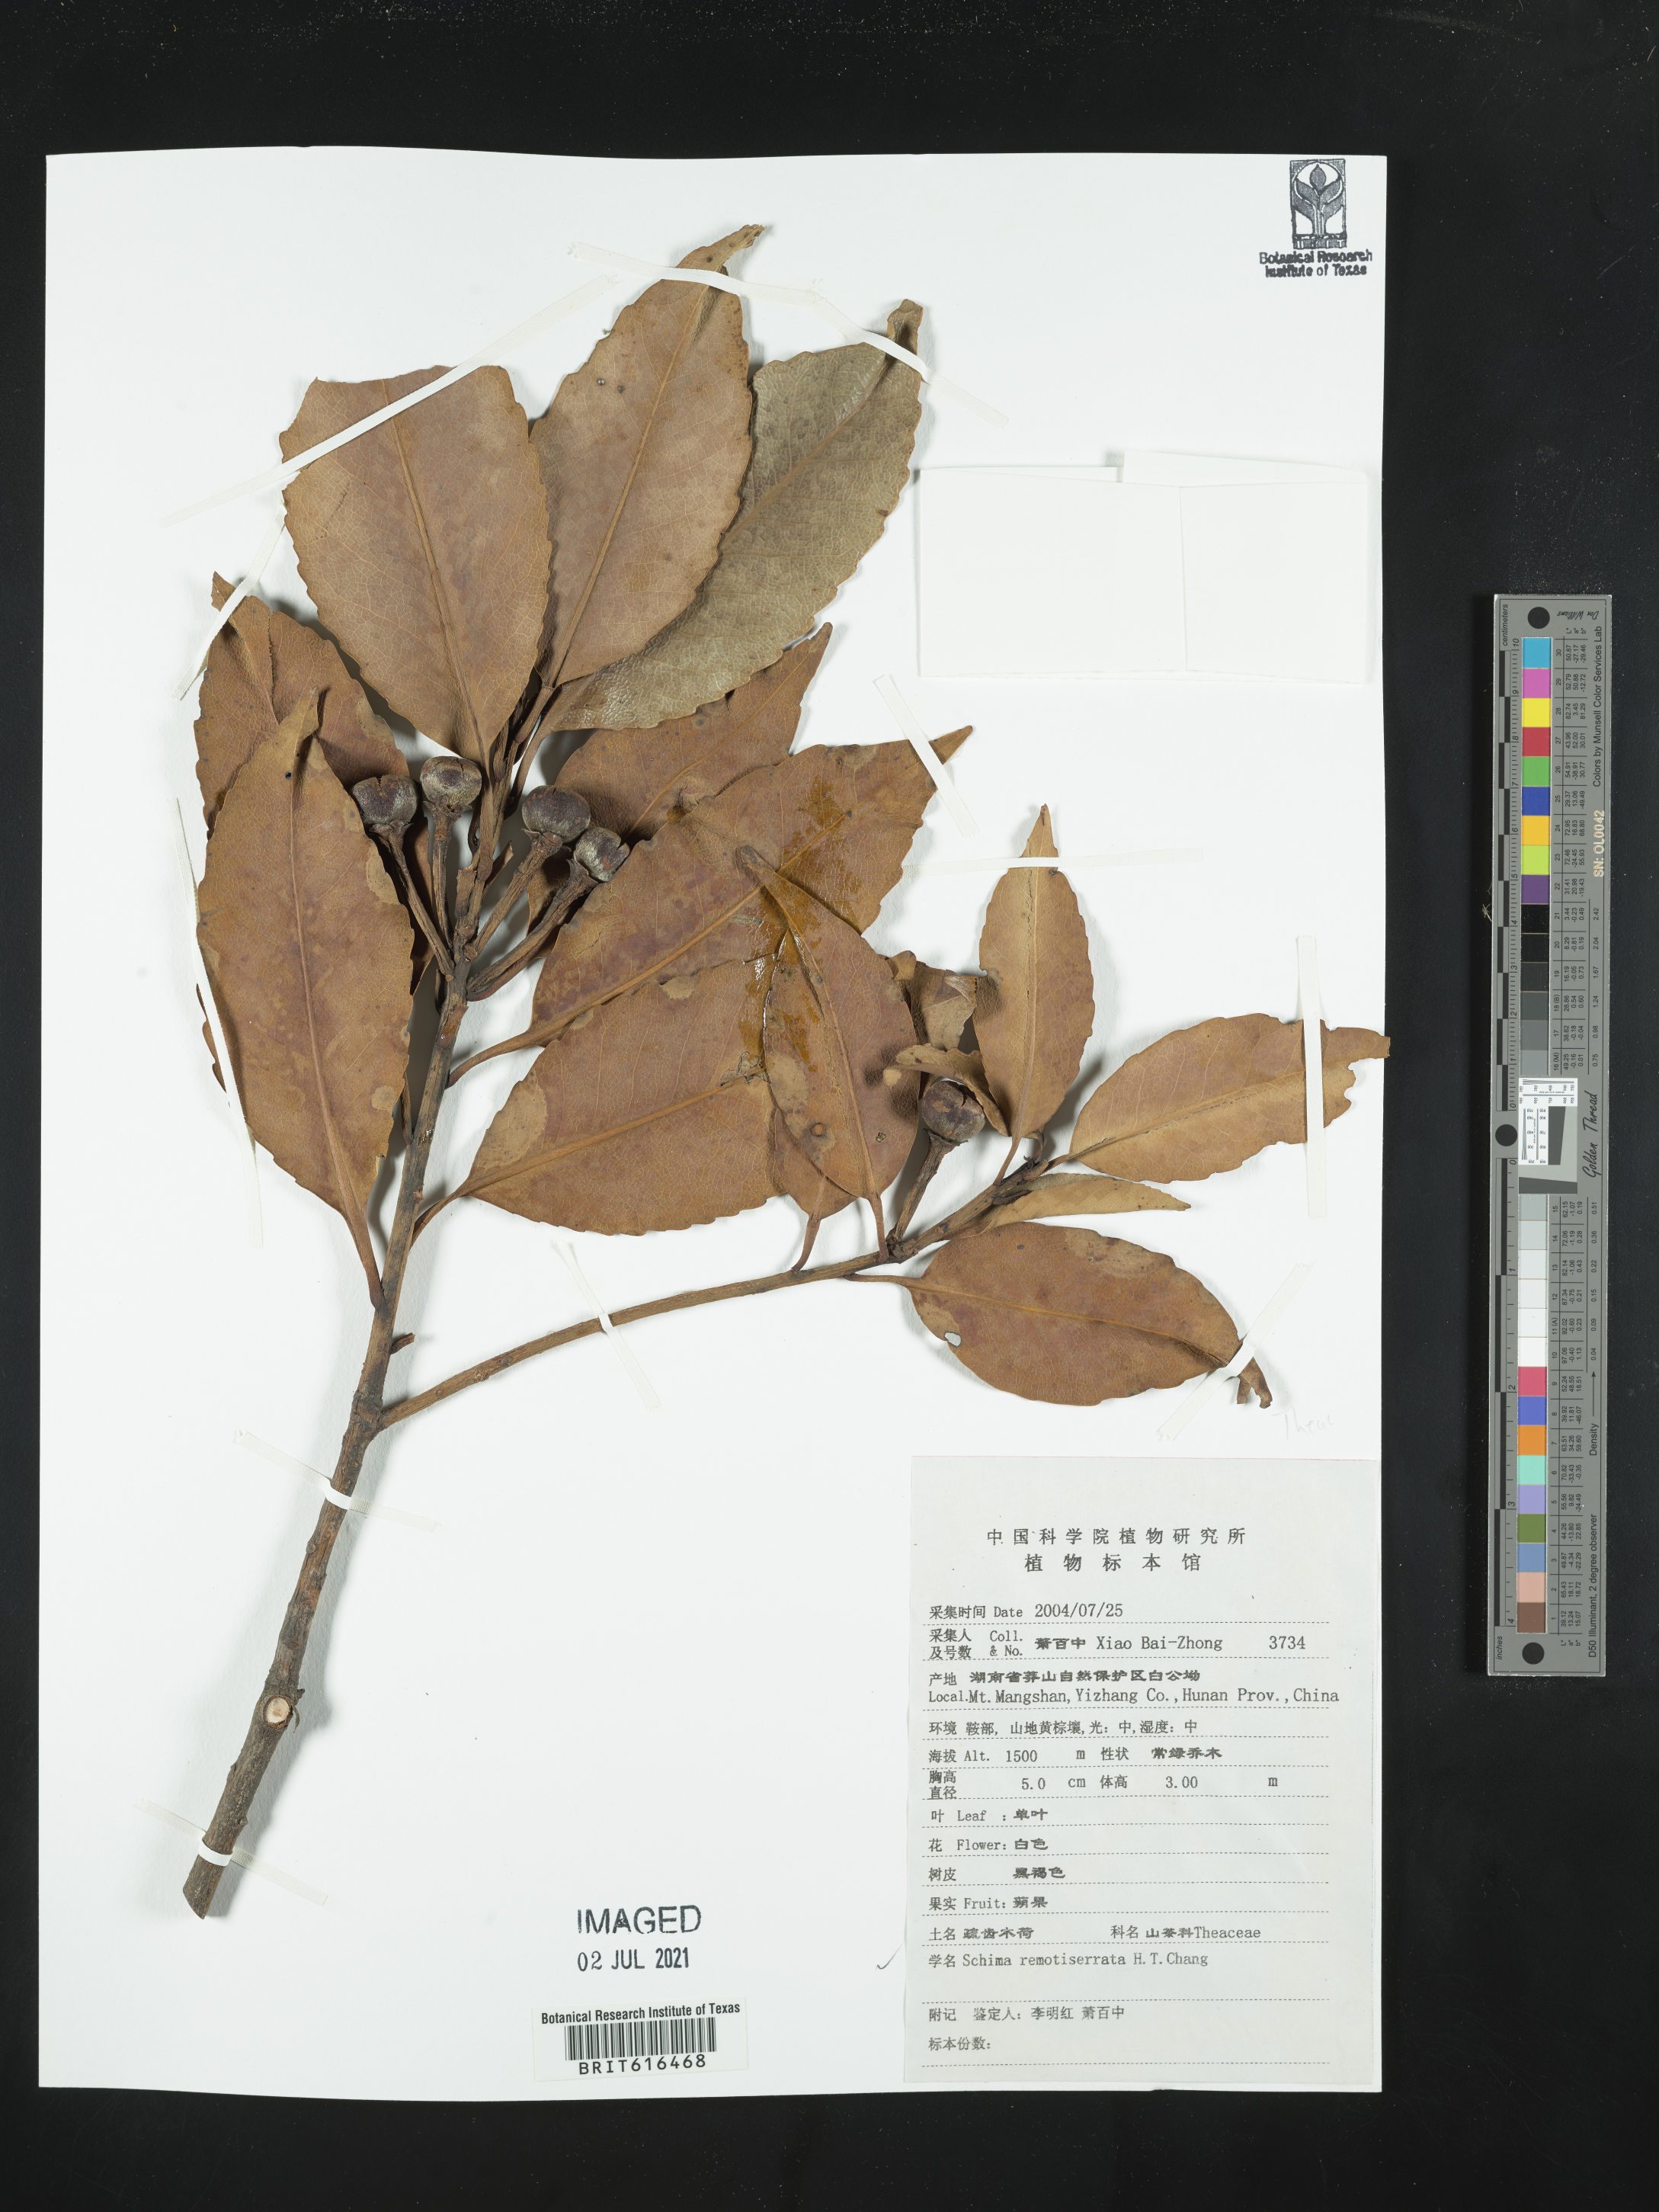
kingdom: Plantae
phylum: Tracheophyta
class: Magnoliopsida
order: Ericales
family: Theaceae
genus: Schima
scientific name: Schima remotiserrata
